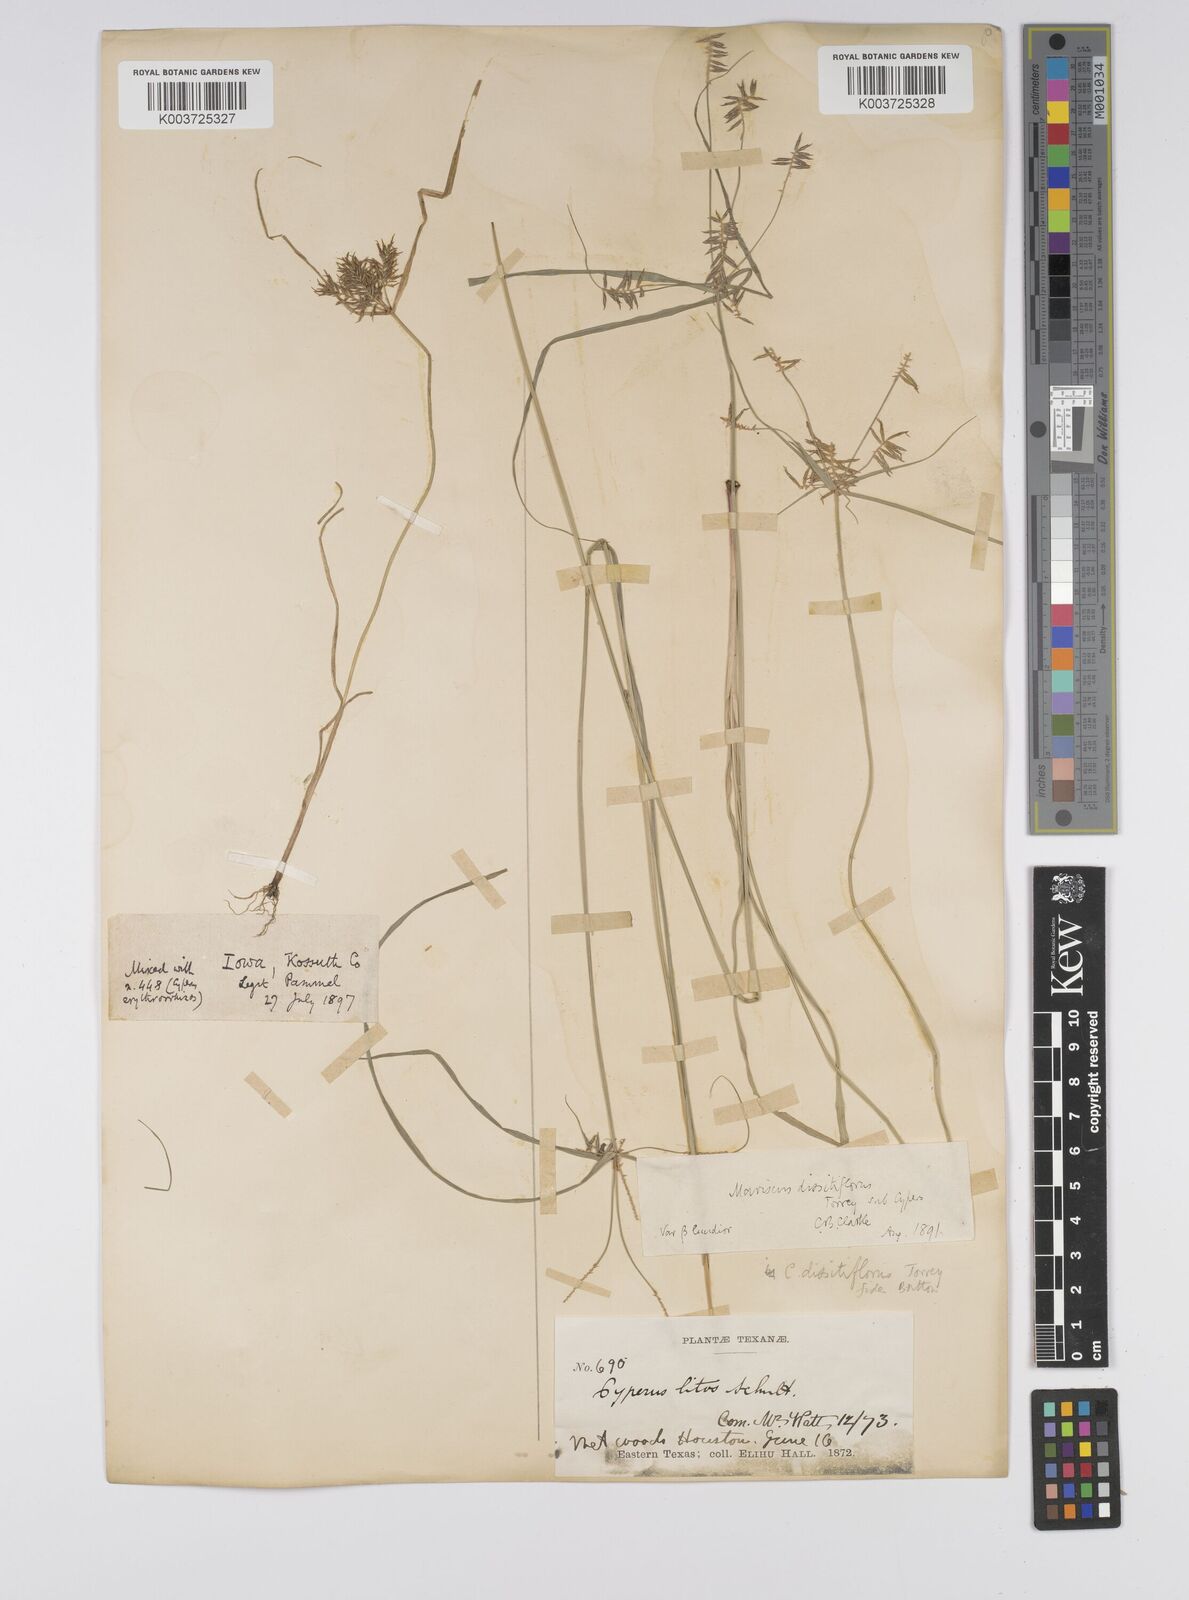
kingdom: Plantae
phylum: Tracheophyta
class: Liliopsida
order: Poales
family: Cyperaceae
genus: Cyperus
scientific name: Cyperus
